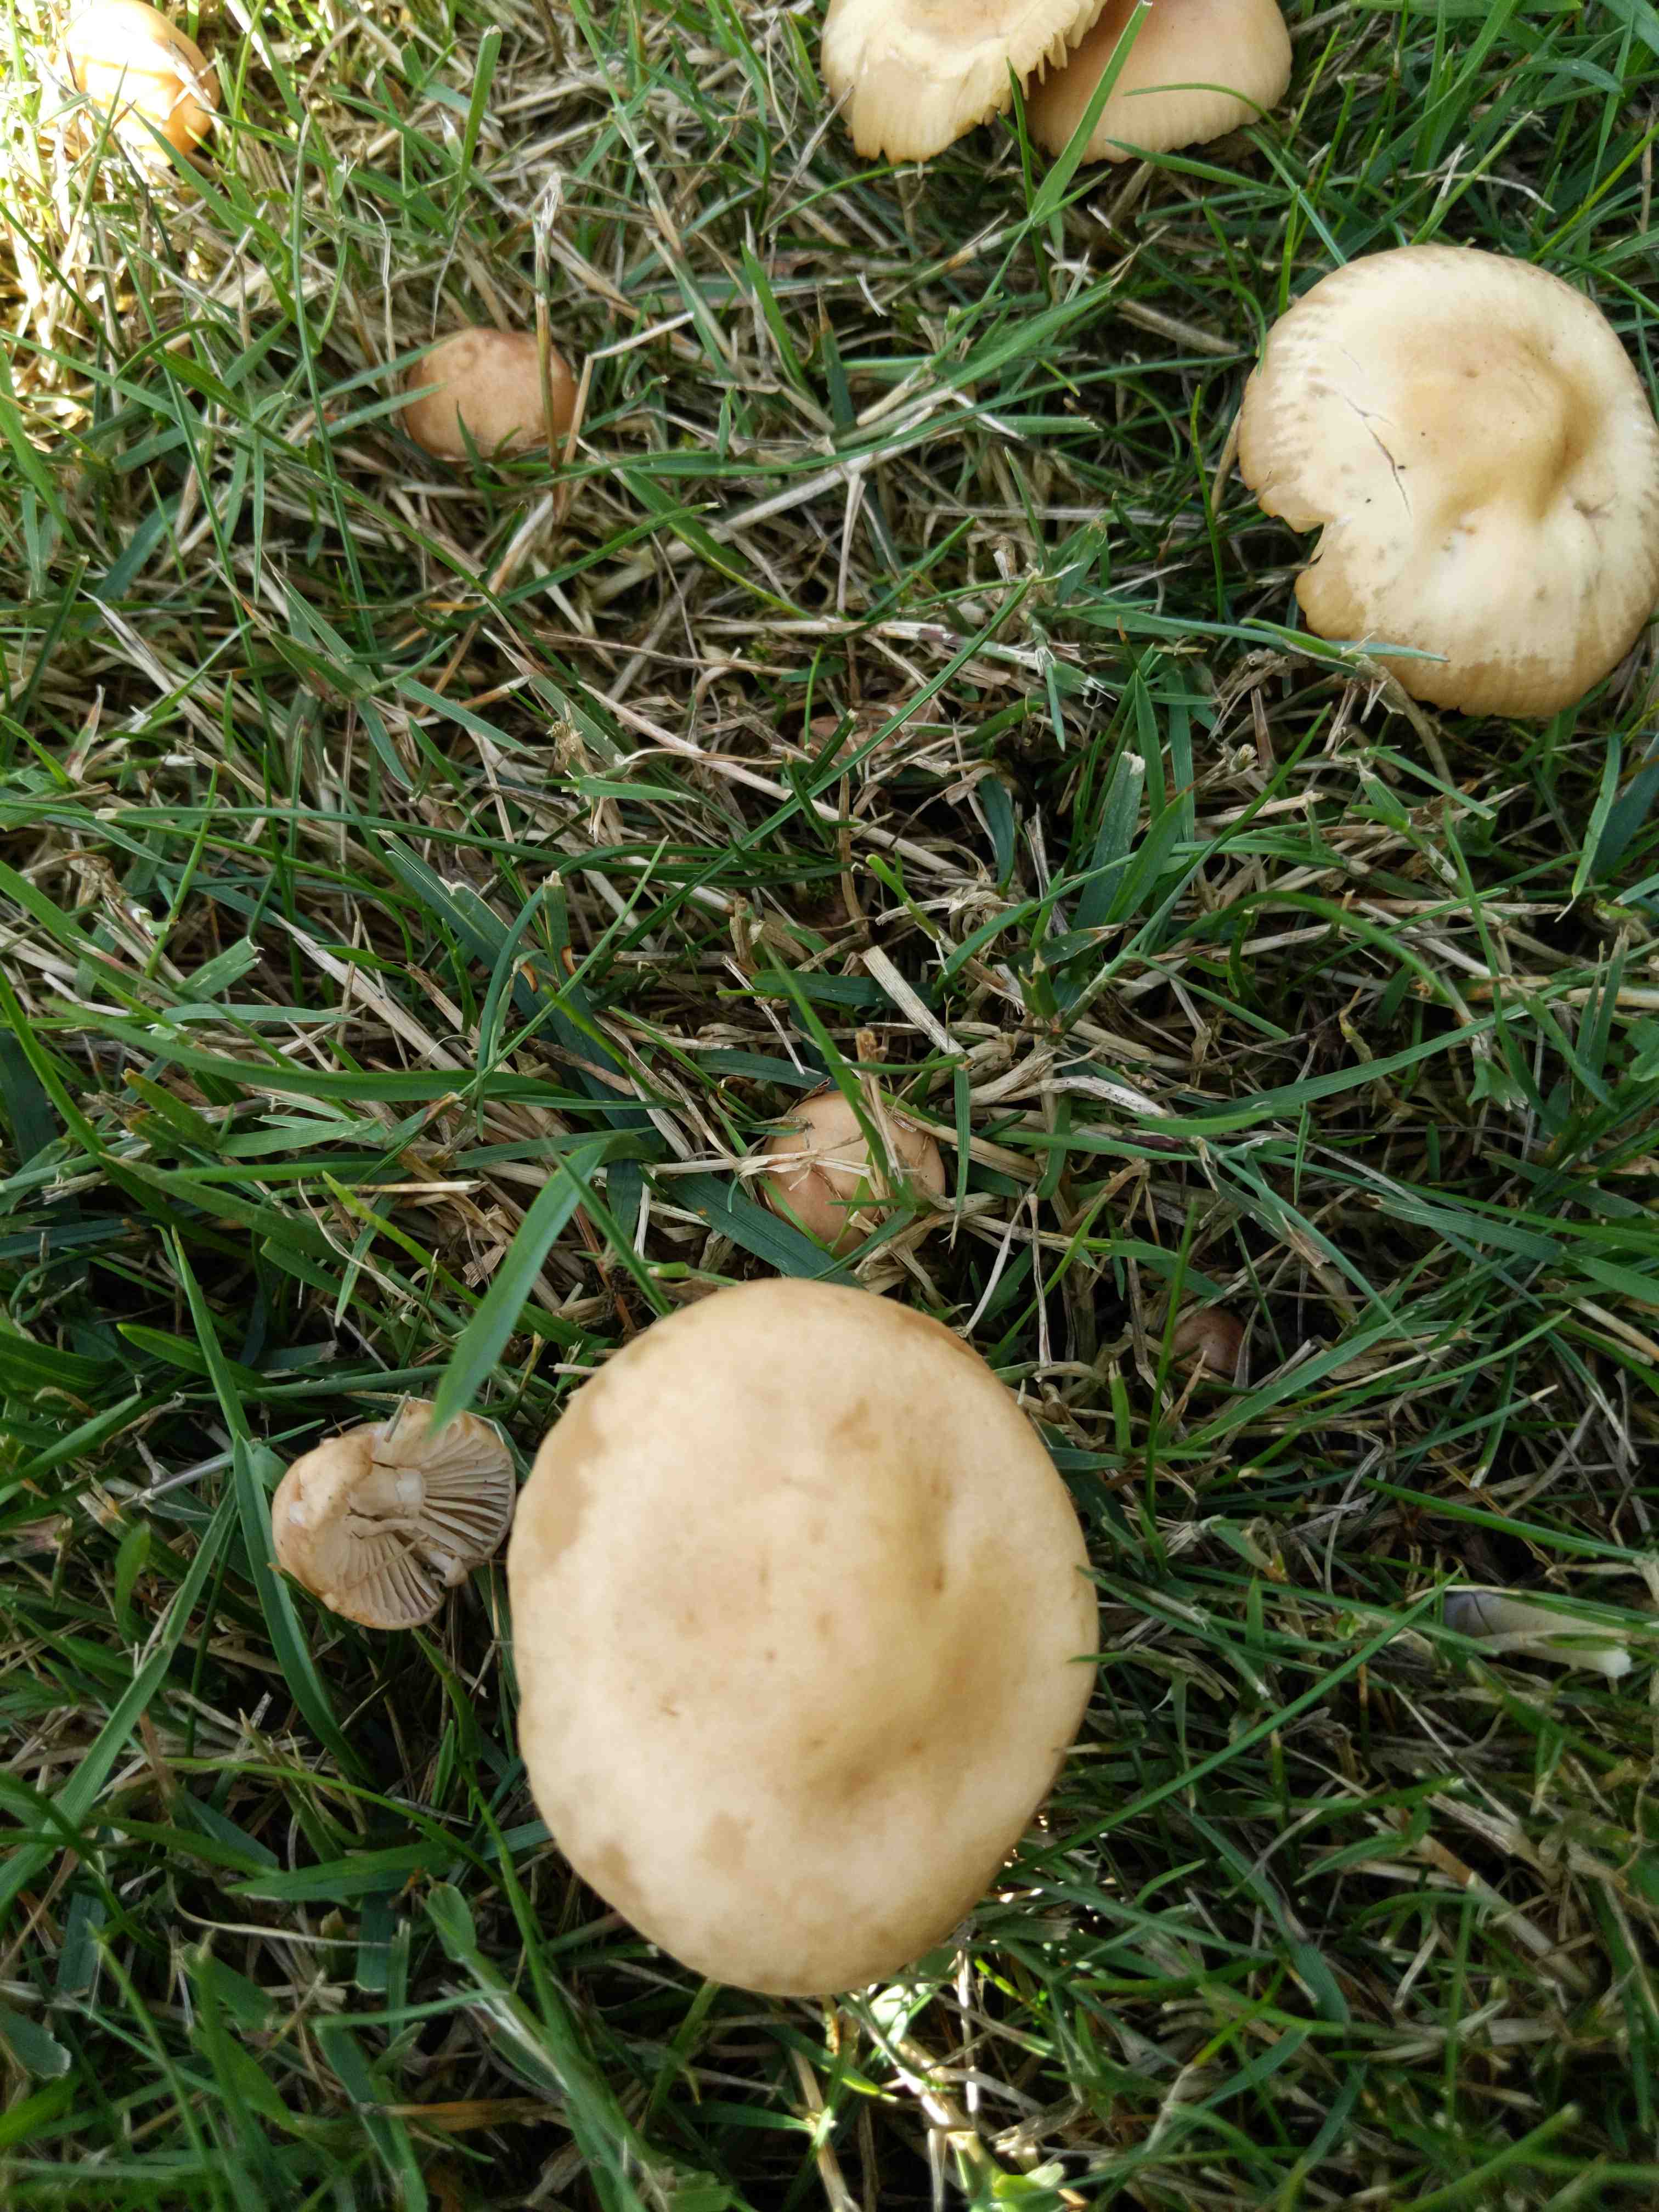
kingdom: Fungi
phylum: Basidiomycota
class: Agaricomycetes
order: Agaricales
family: Marasmiaceae
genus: Marasmius
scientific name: Marasmius oreades
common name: elledans-bruskhat
